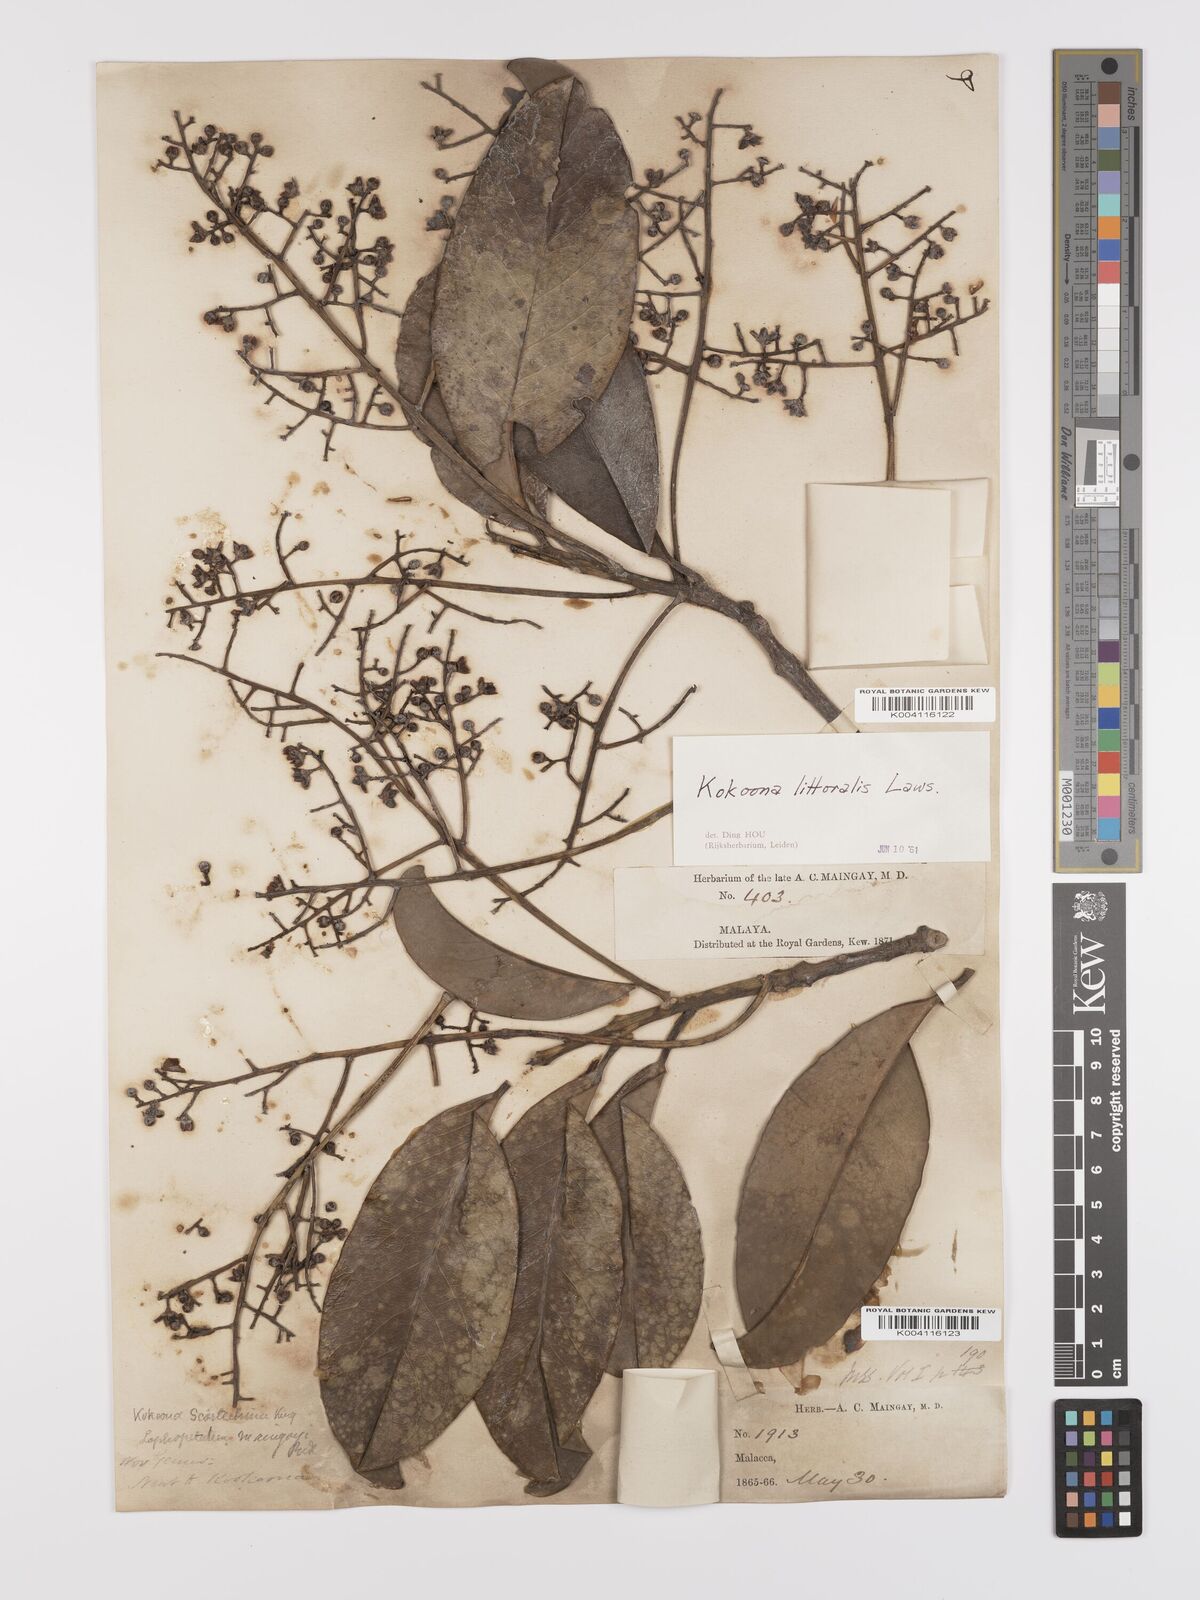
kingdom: Plantae
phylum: Tracheophyta
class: Magnoliopsida
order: Celastrales
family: Celastraceae
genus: Kokoona
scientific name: Kokoona littoralis
